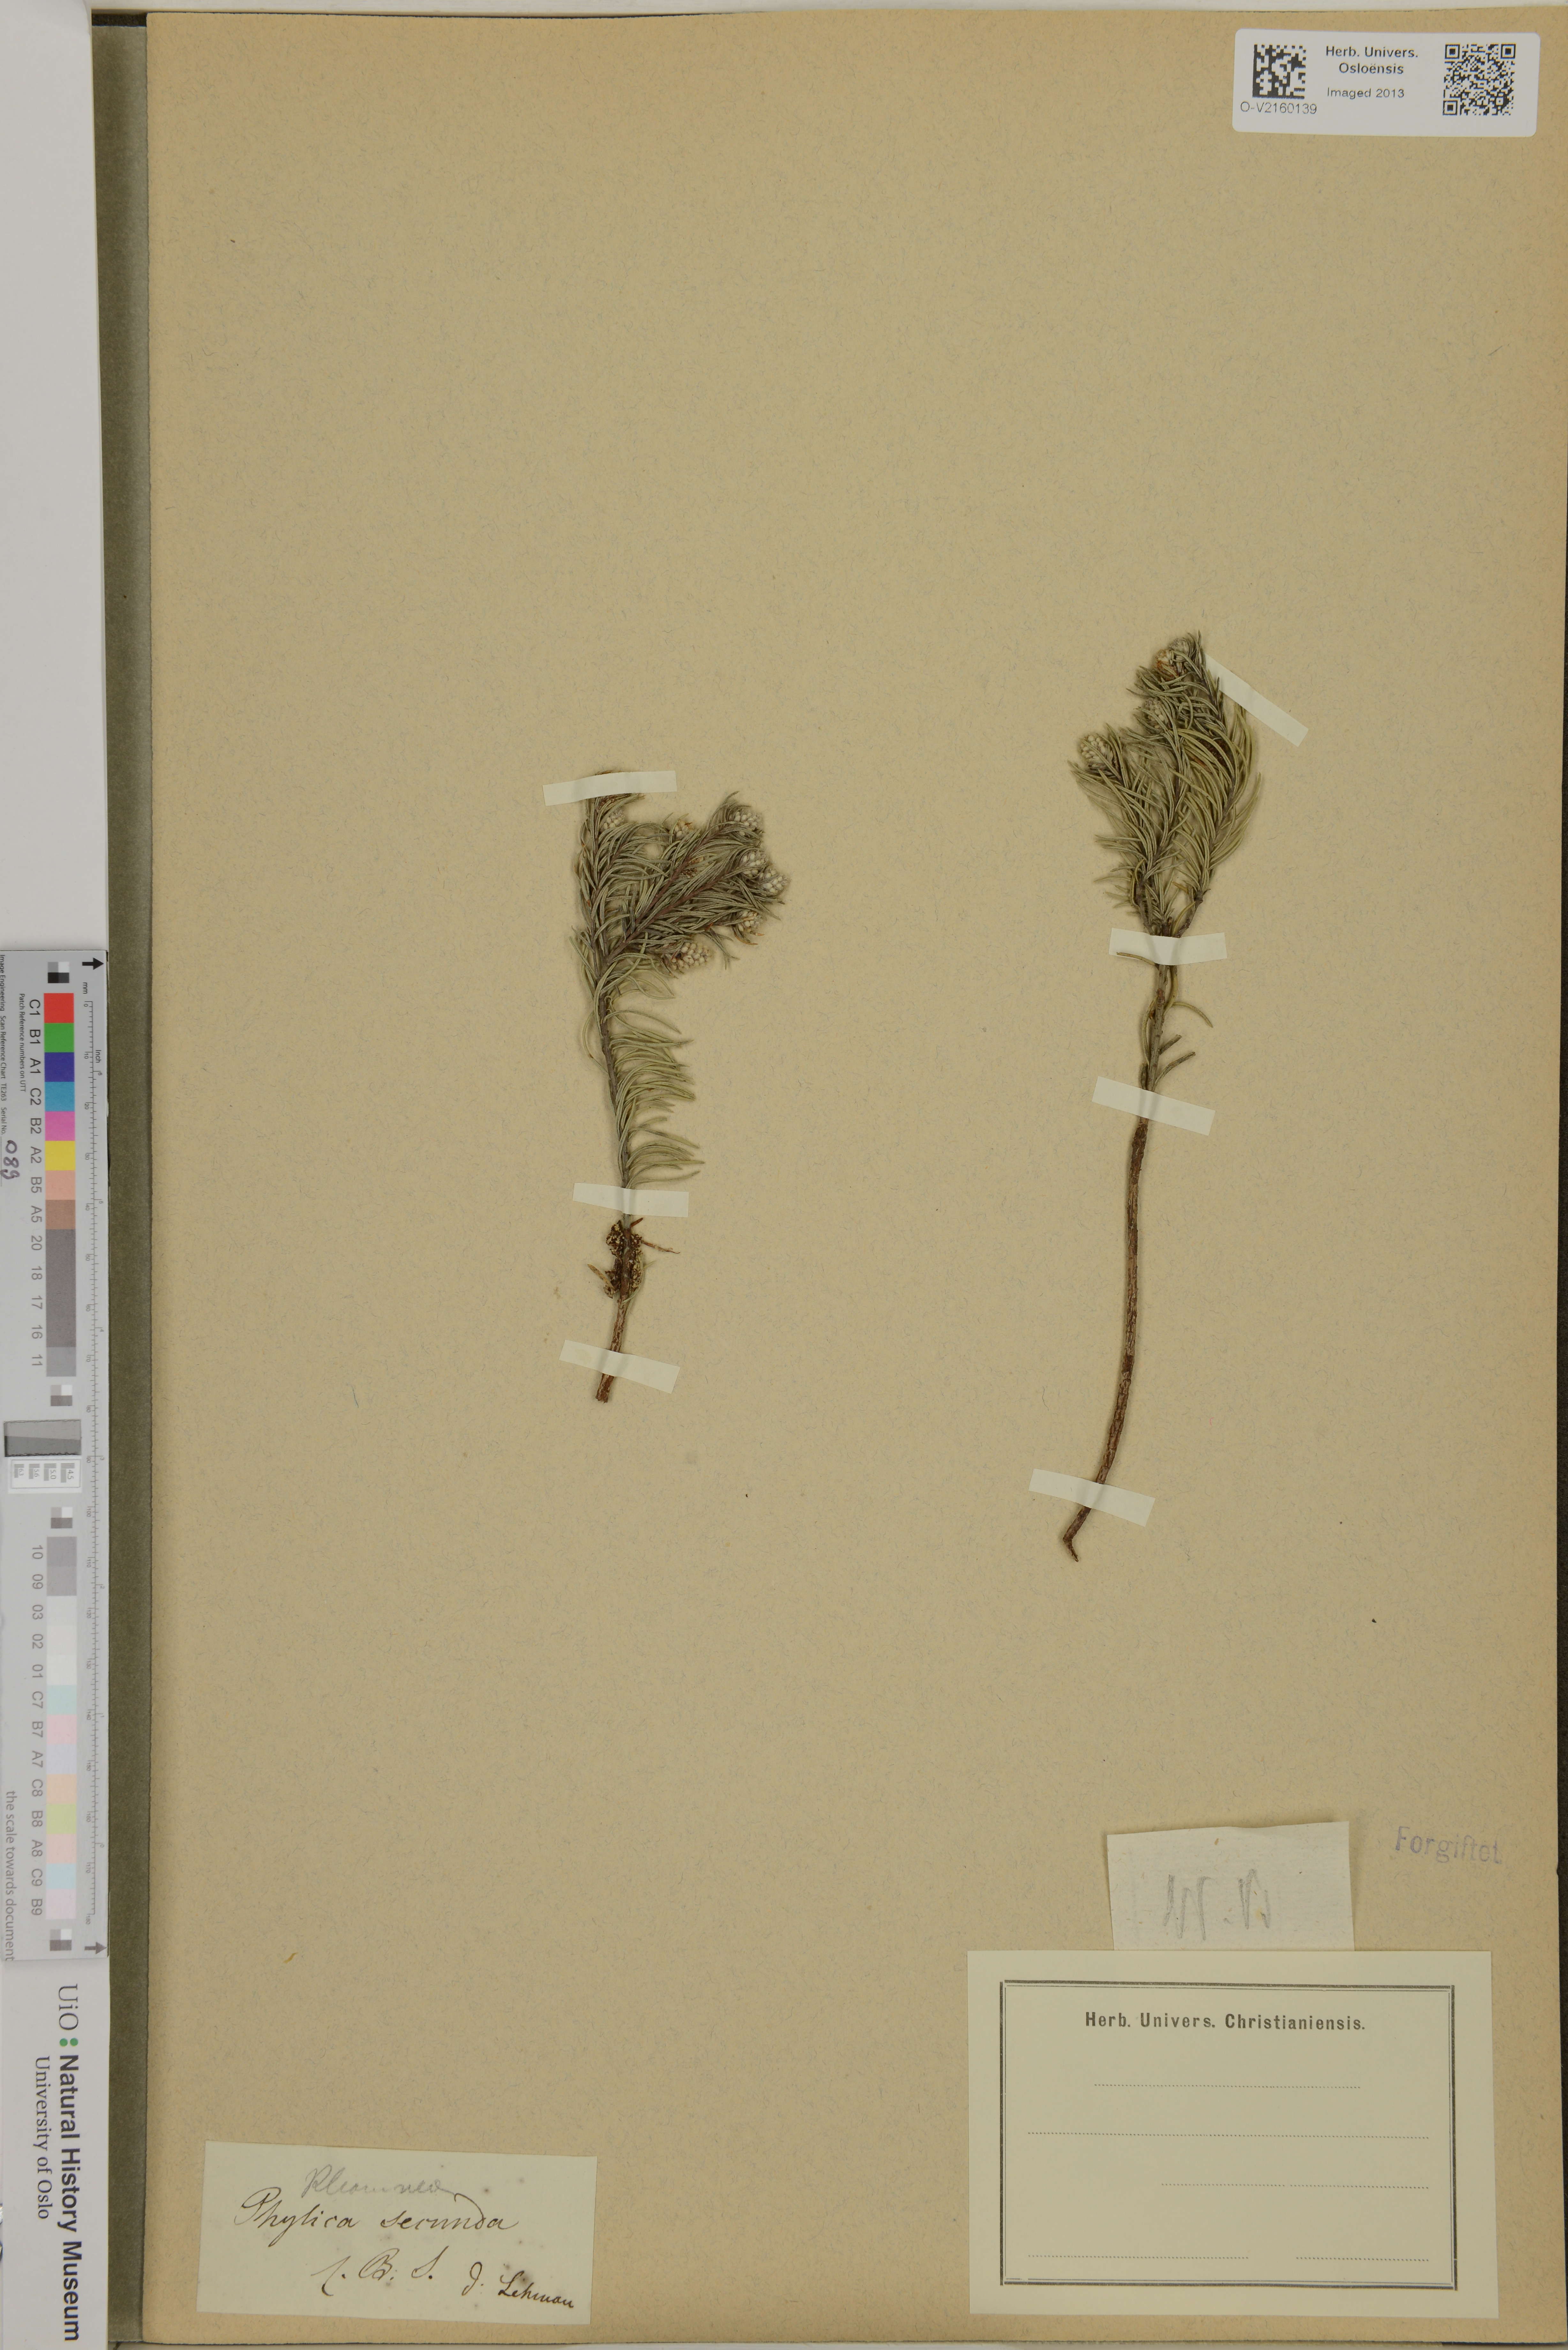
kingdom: Plantae
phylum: Tracheophyta
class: Magnoliopsida
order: Rosales
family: Rhamnaceae
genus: Phylica
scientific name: Phylica imberbis
